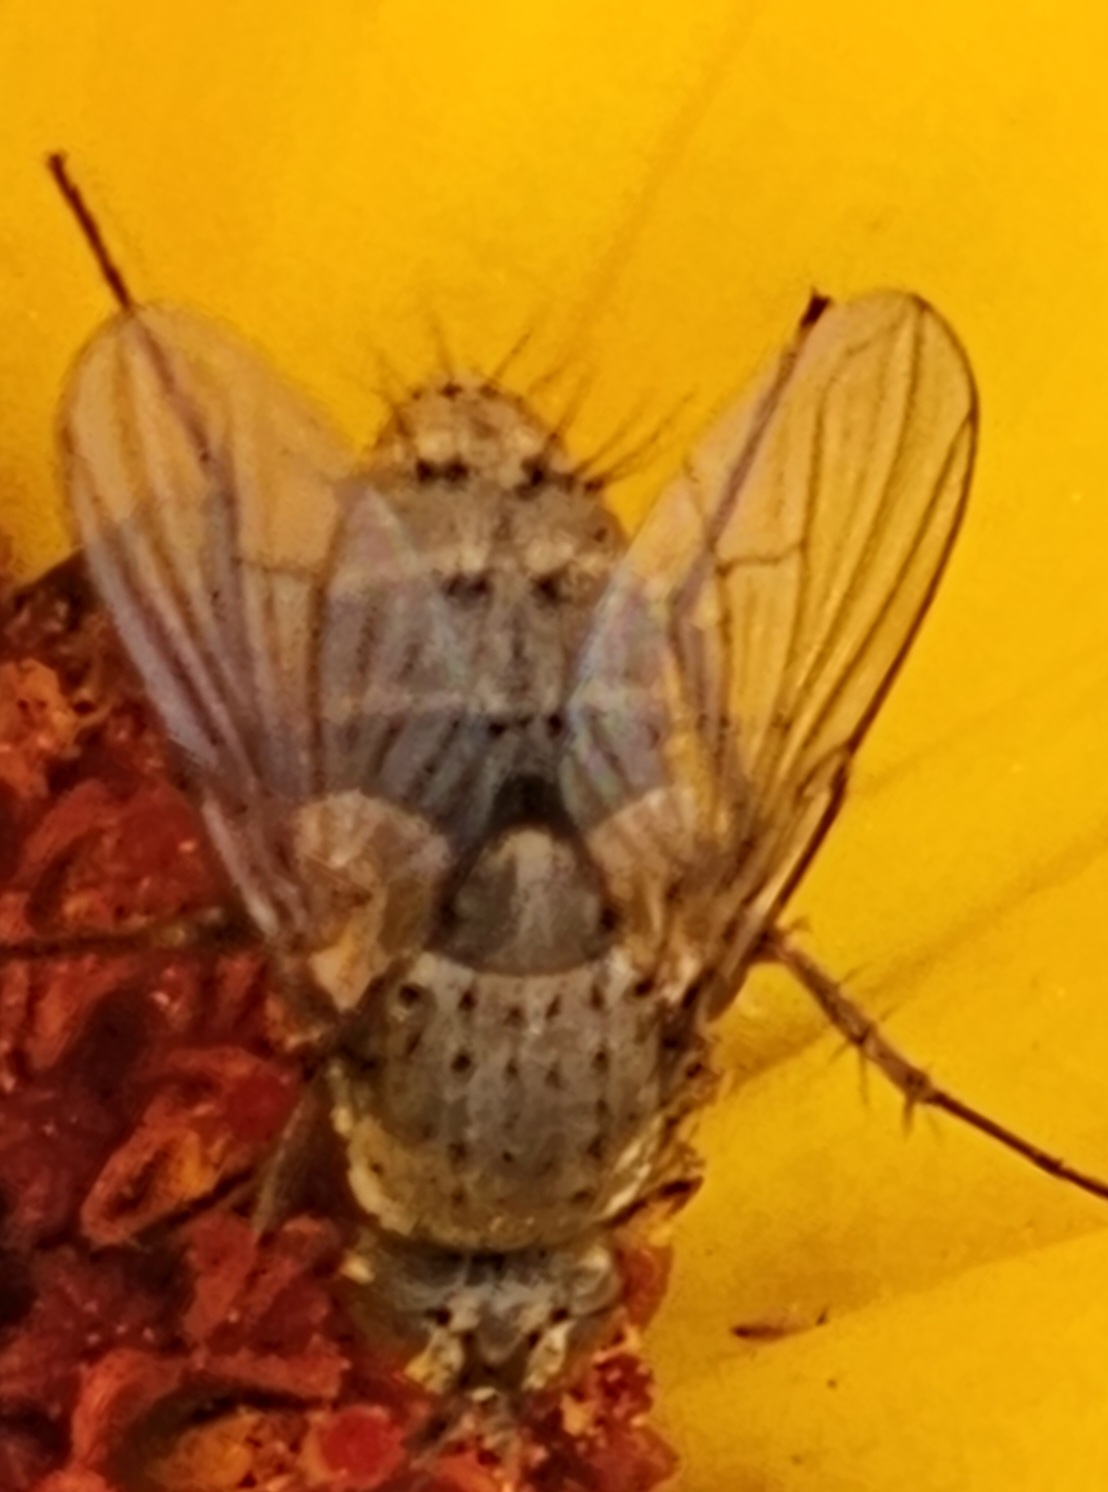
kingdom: Animalia
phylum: Arthropoda
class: Insecta
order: Diptera
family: Tachinidae
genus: Siphona
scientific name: Siphona
